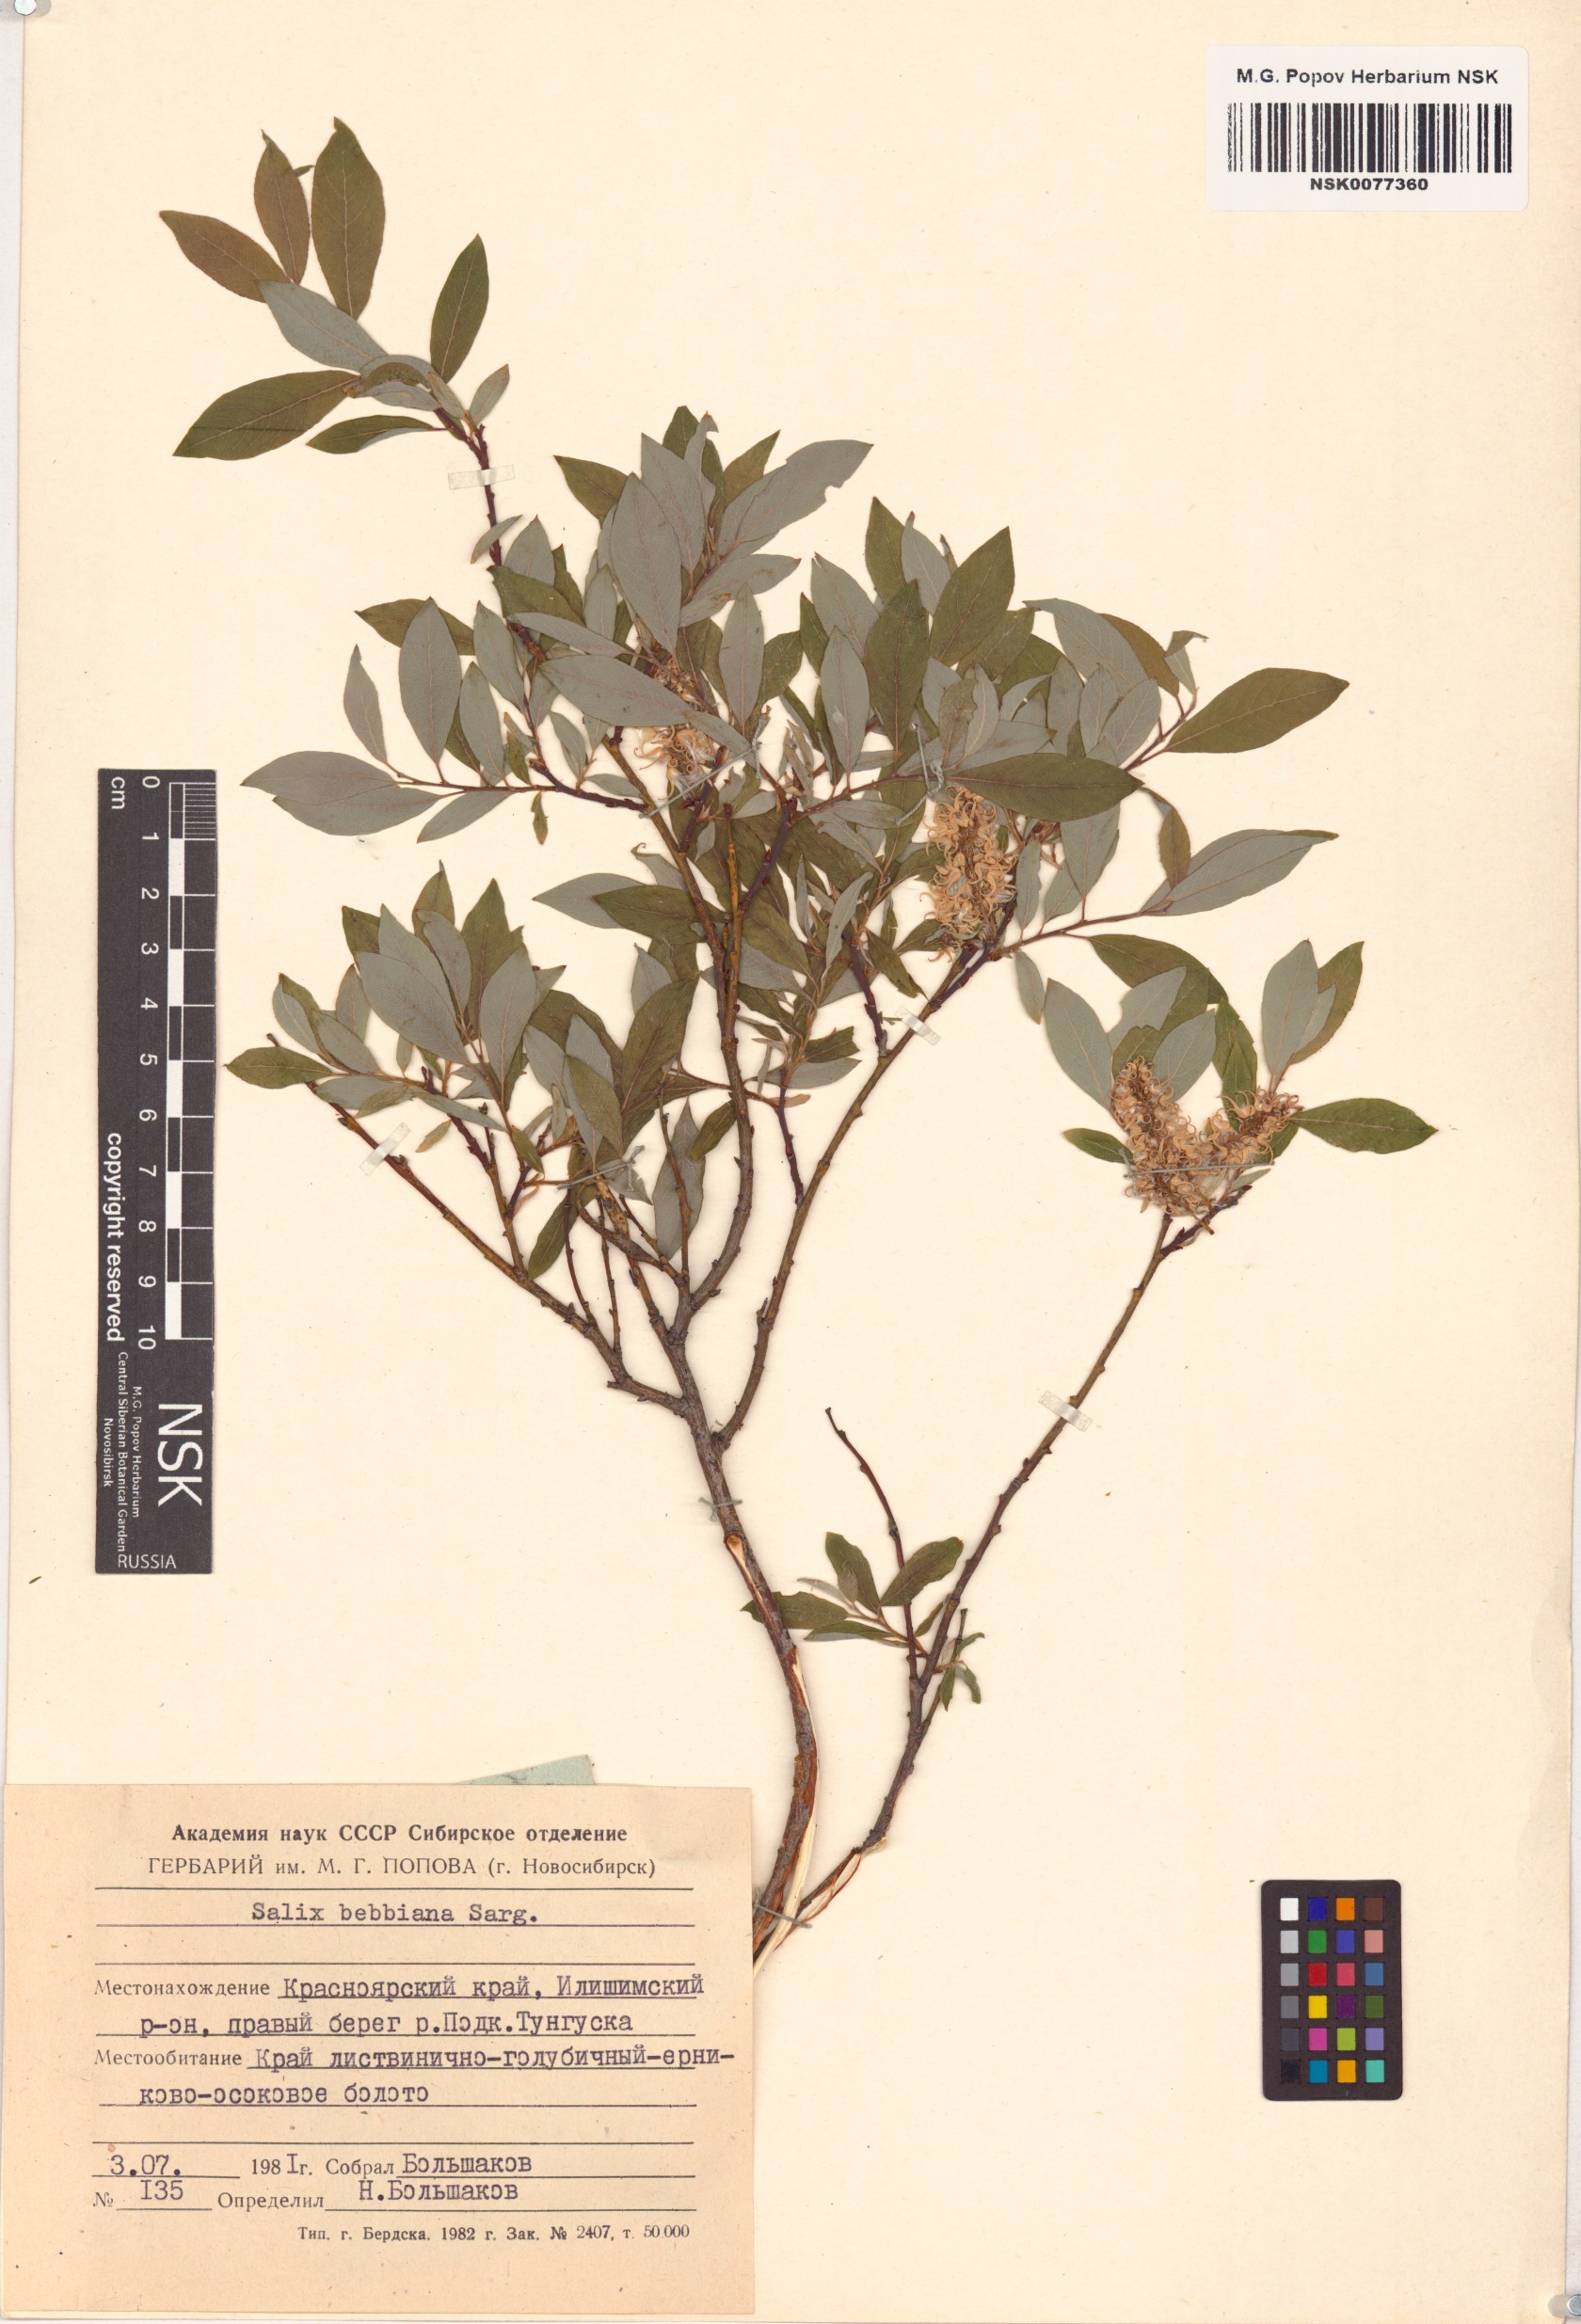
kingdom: Plantae
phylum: Tracheophyta
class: Magnoliopsida
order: Malpighiales
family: Salicaceae
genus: Salix
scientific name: Salix bebbiana
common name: Bebb's willow
